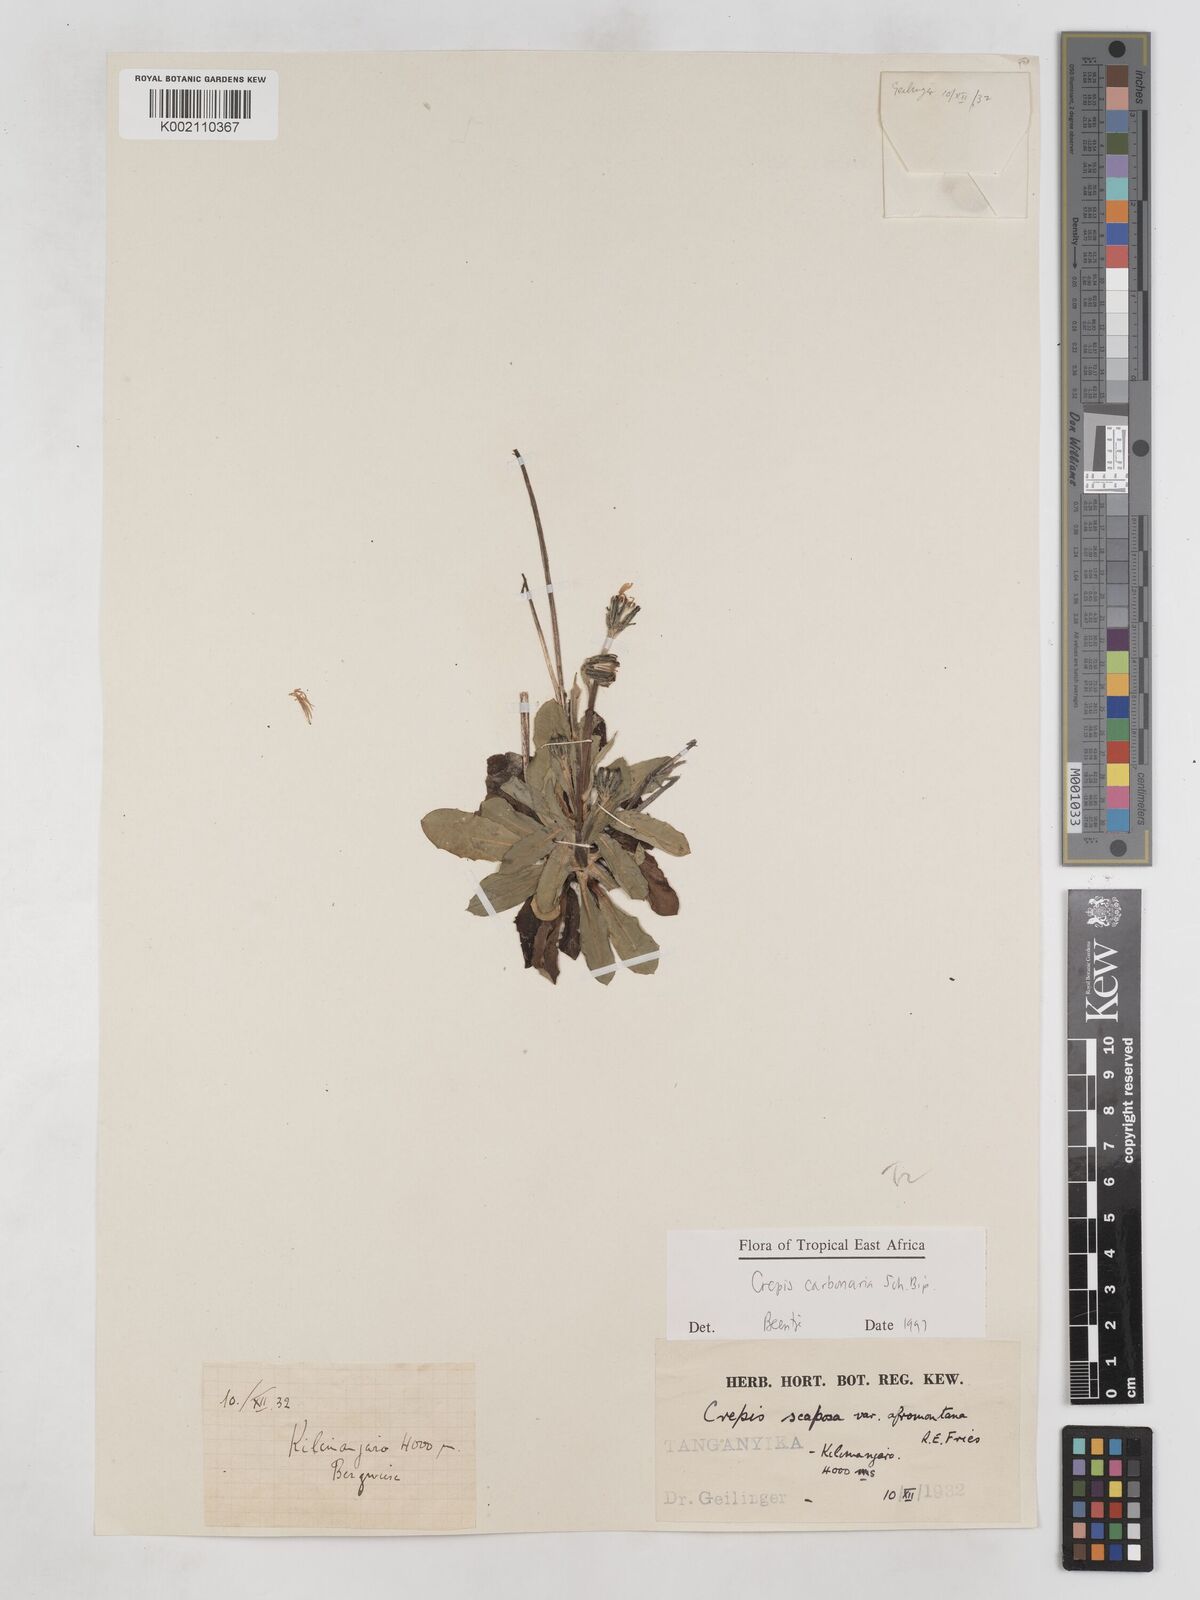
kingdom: Plantae
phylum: Tracheophyta
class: Magnoliopsida
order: Asterales
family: Asteraceae
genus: Crepis
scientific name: Crepis carbonaria
